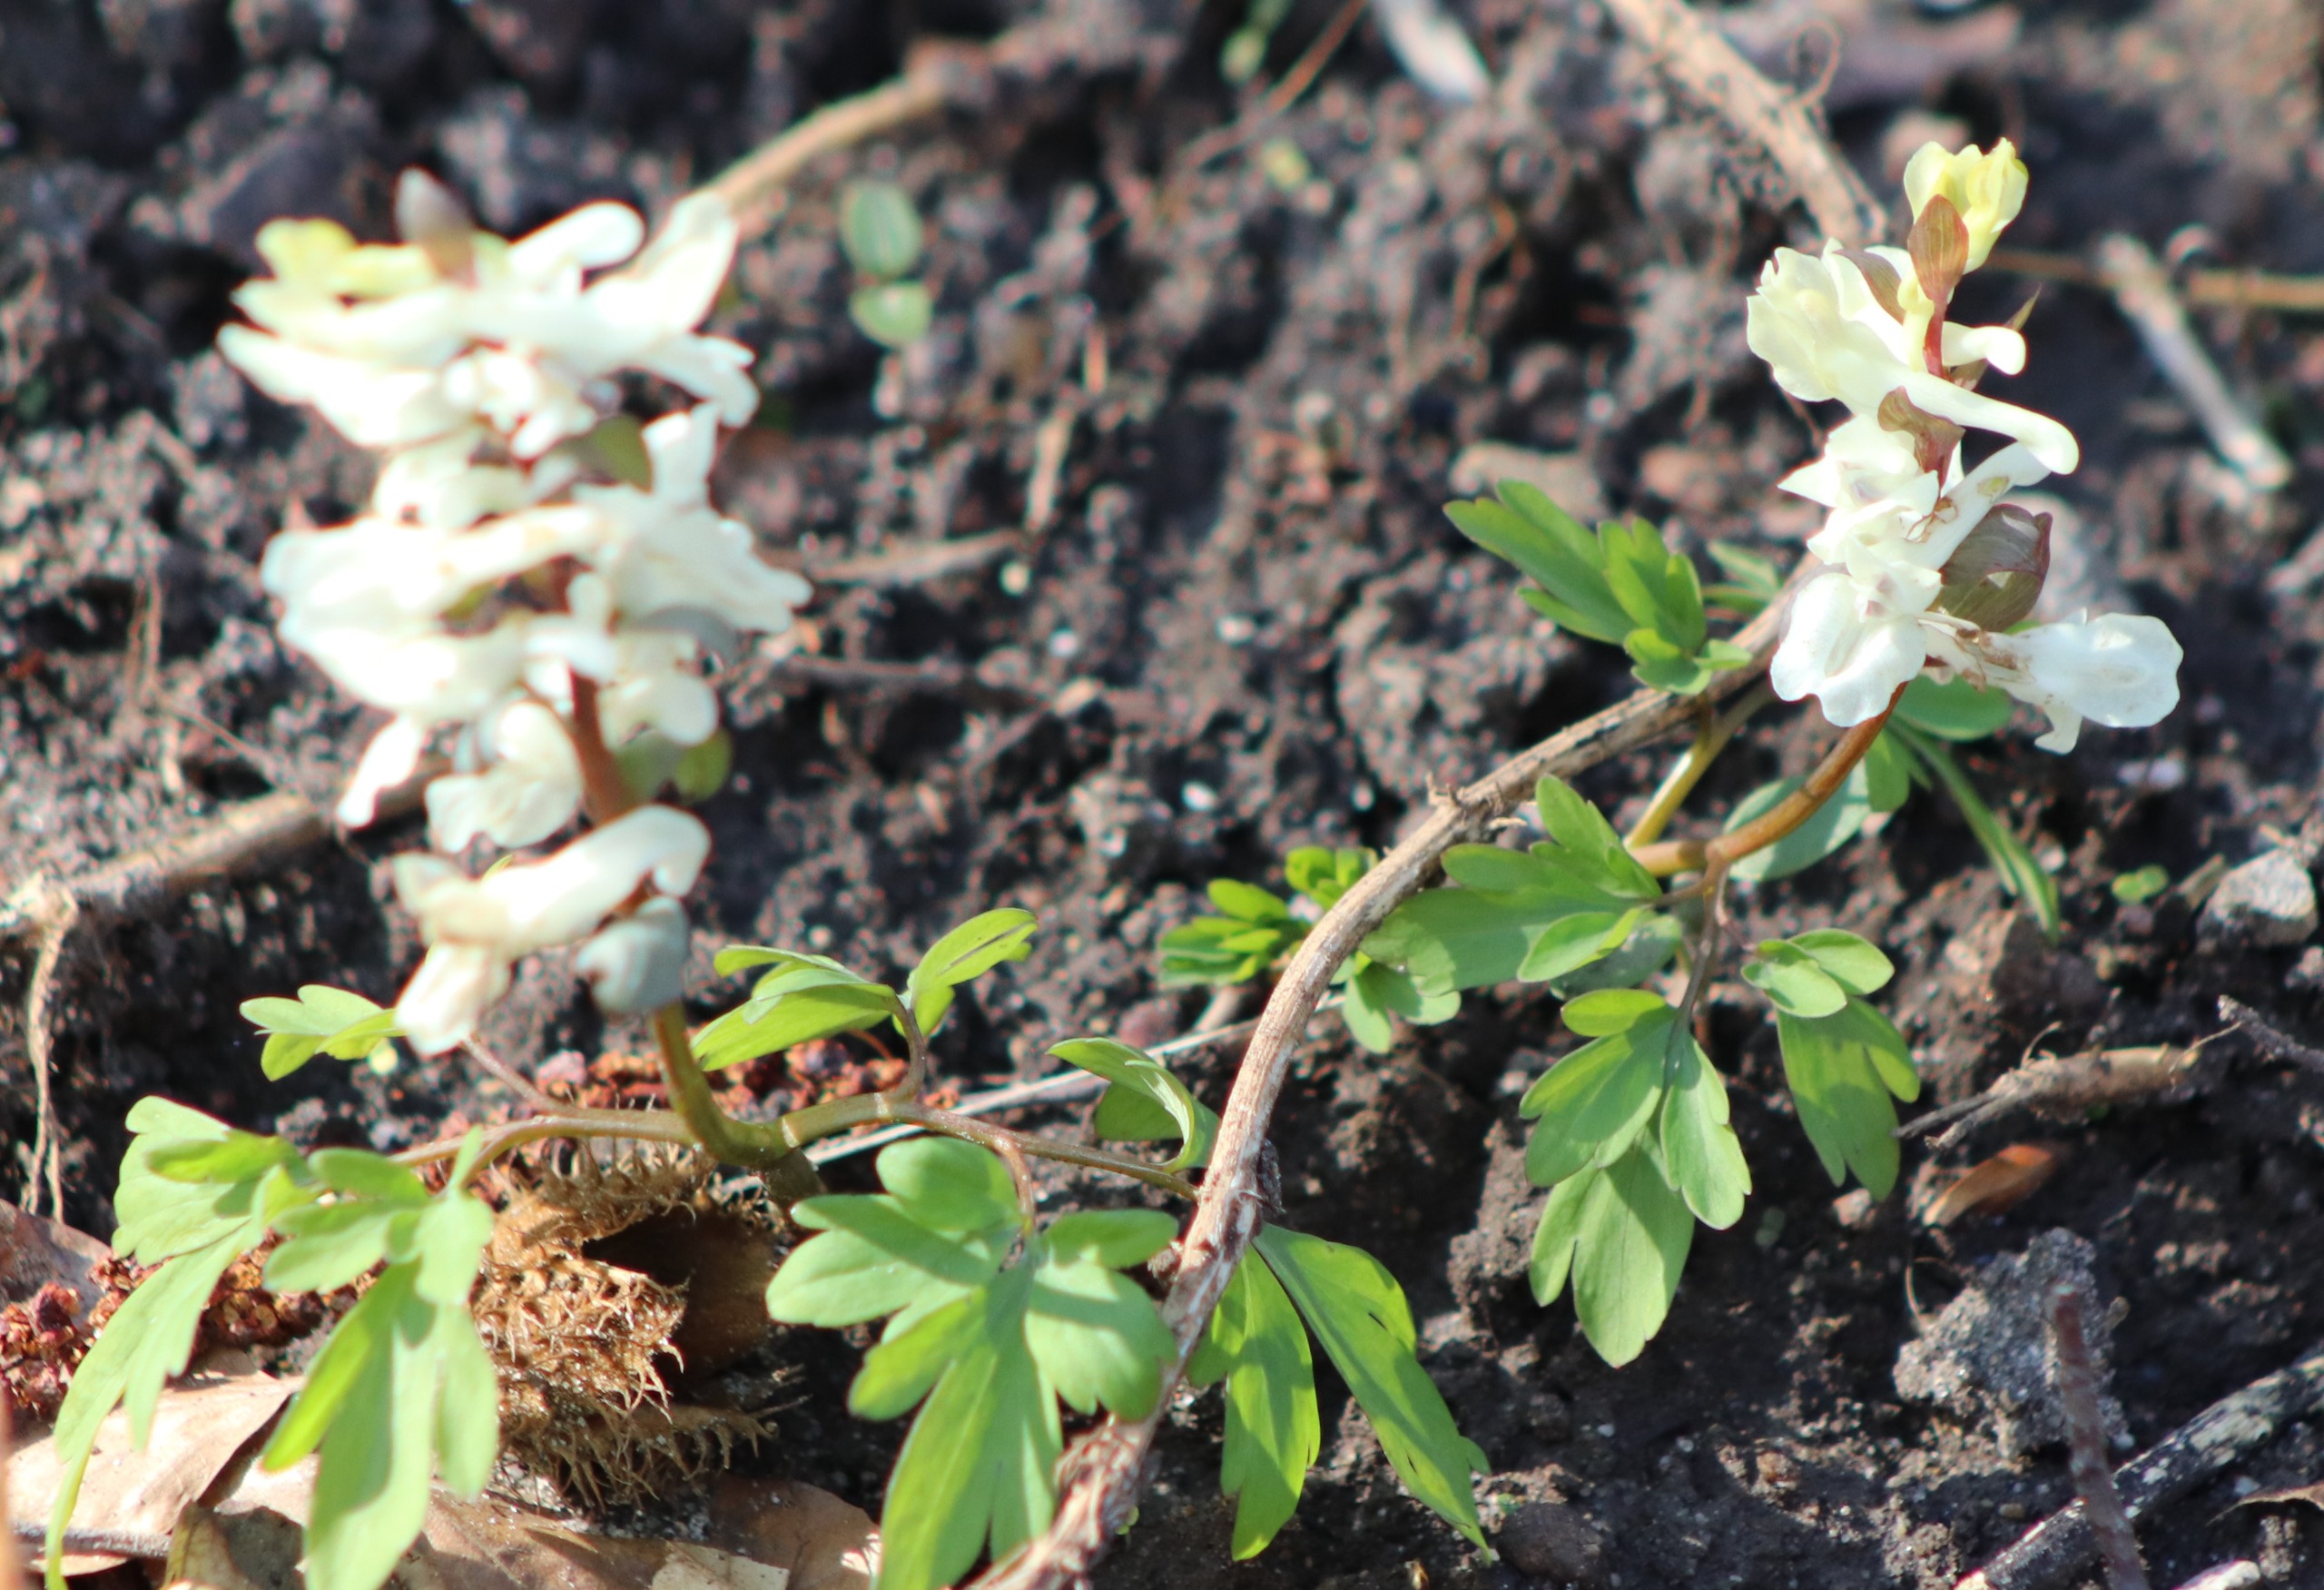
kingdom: Plantae
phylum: Tracheophyta
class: Magnoliopsida
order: Ranunculales
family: Papaveraceae
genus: Corydalis
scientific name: Corydalis cava
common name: Hulrodet lærkespore
